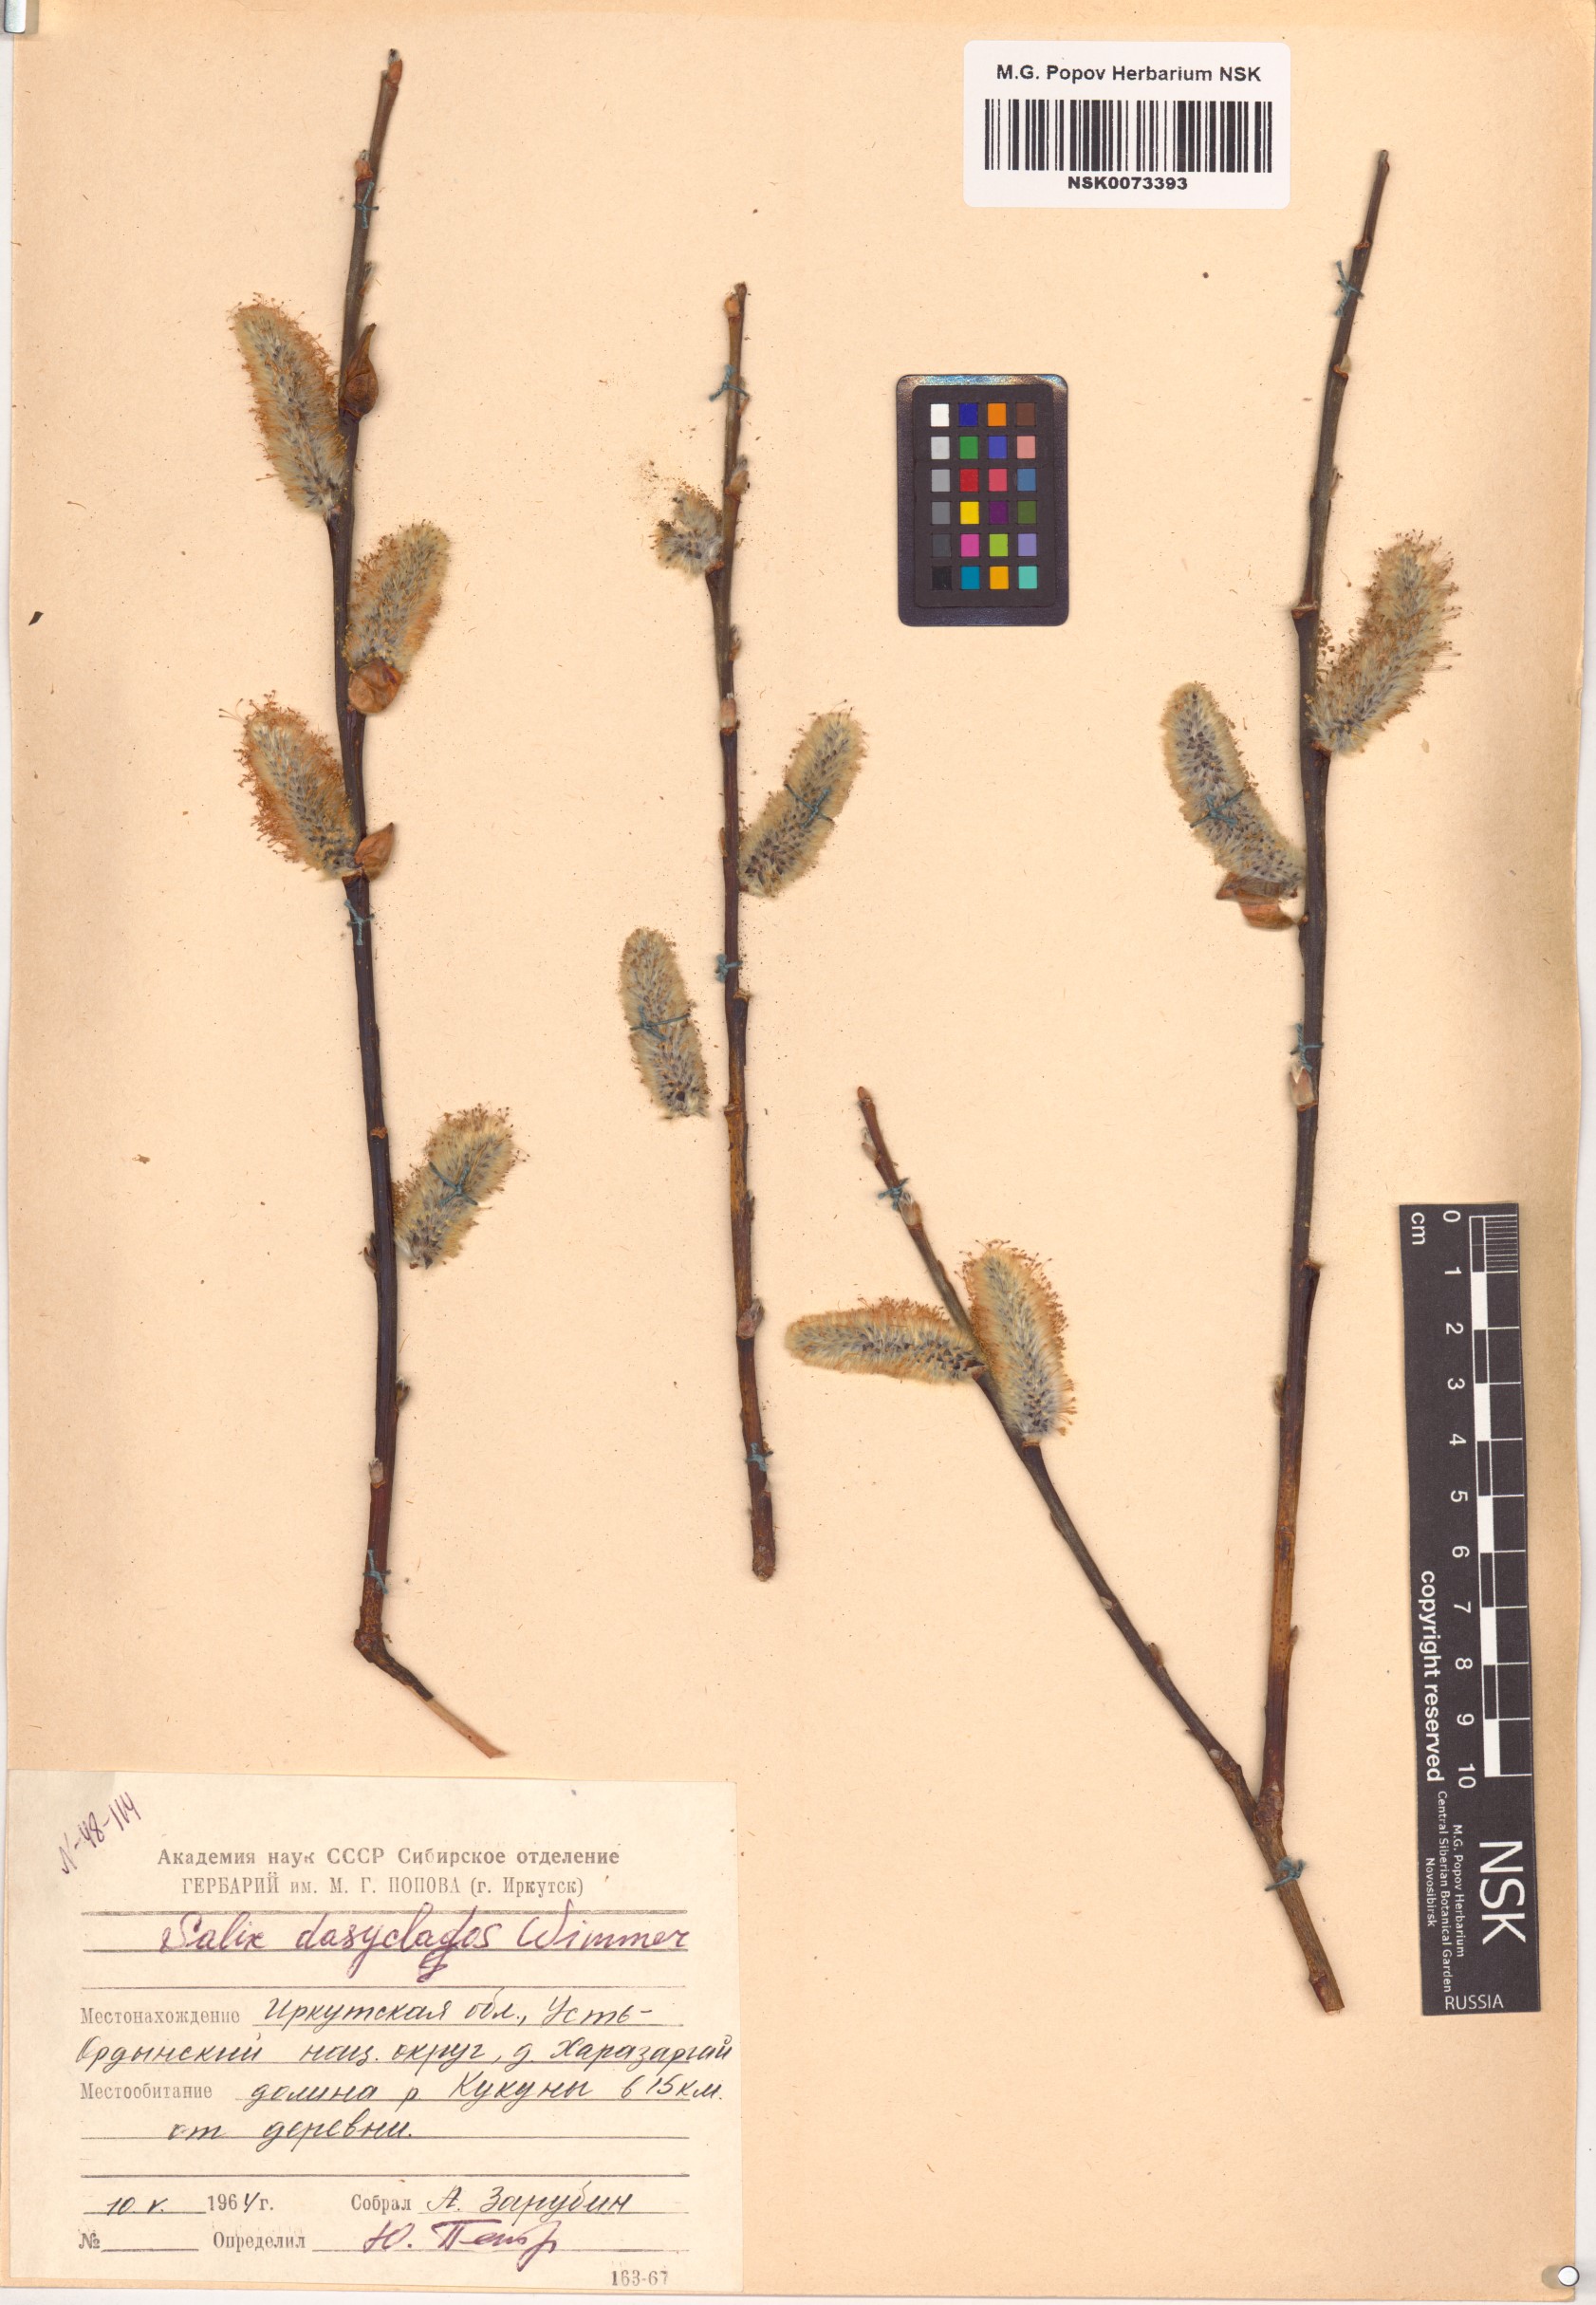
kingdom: Plantae
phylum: Tracheophyta
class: Magnoliopsida
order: Malpighiales
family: Salicaceae
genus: Salix
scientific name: Salix gmelinii
